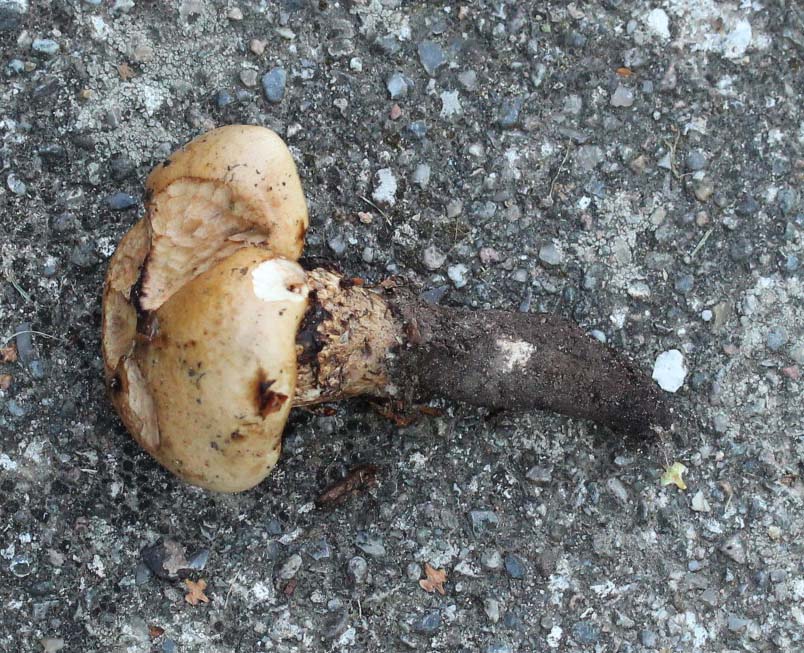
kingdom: Fungi
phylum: Basidiomycota
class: Agaricomycetes
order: Agaricales
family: Hymenogastraceae
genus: Hebeloma
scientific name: Hebeloma radicosum
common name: pælerods-tåreblad
